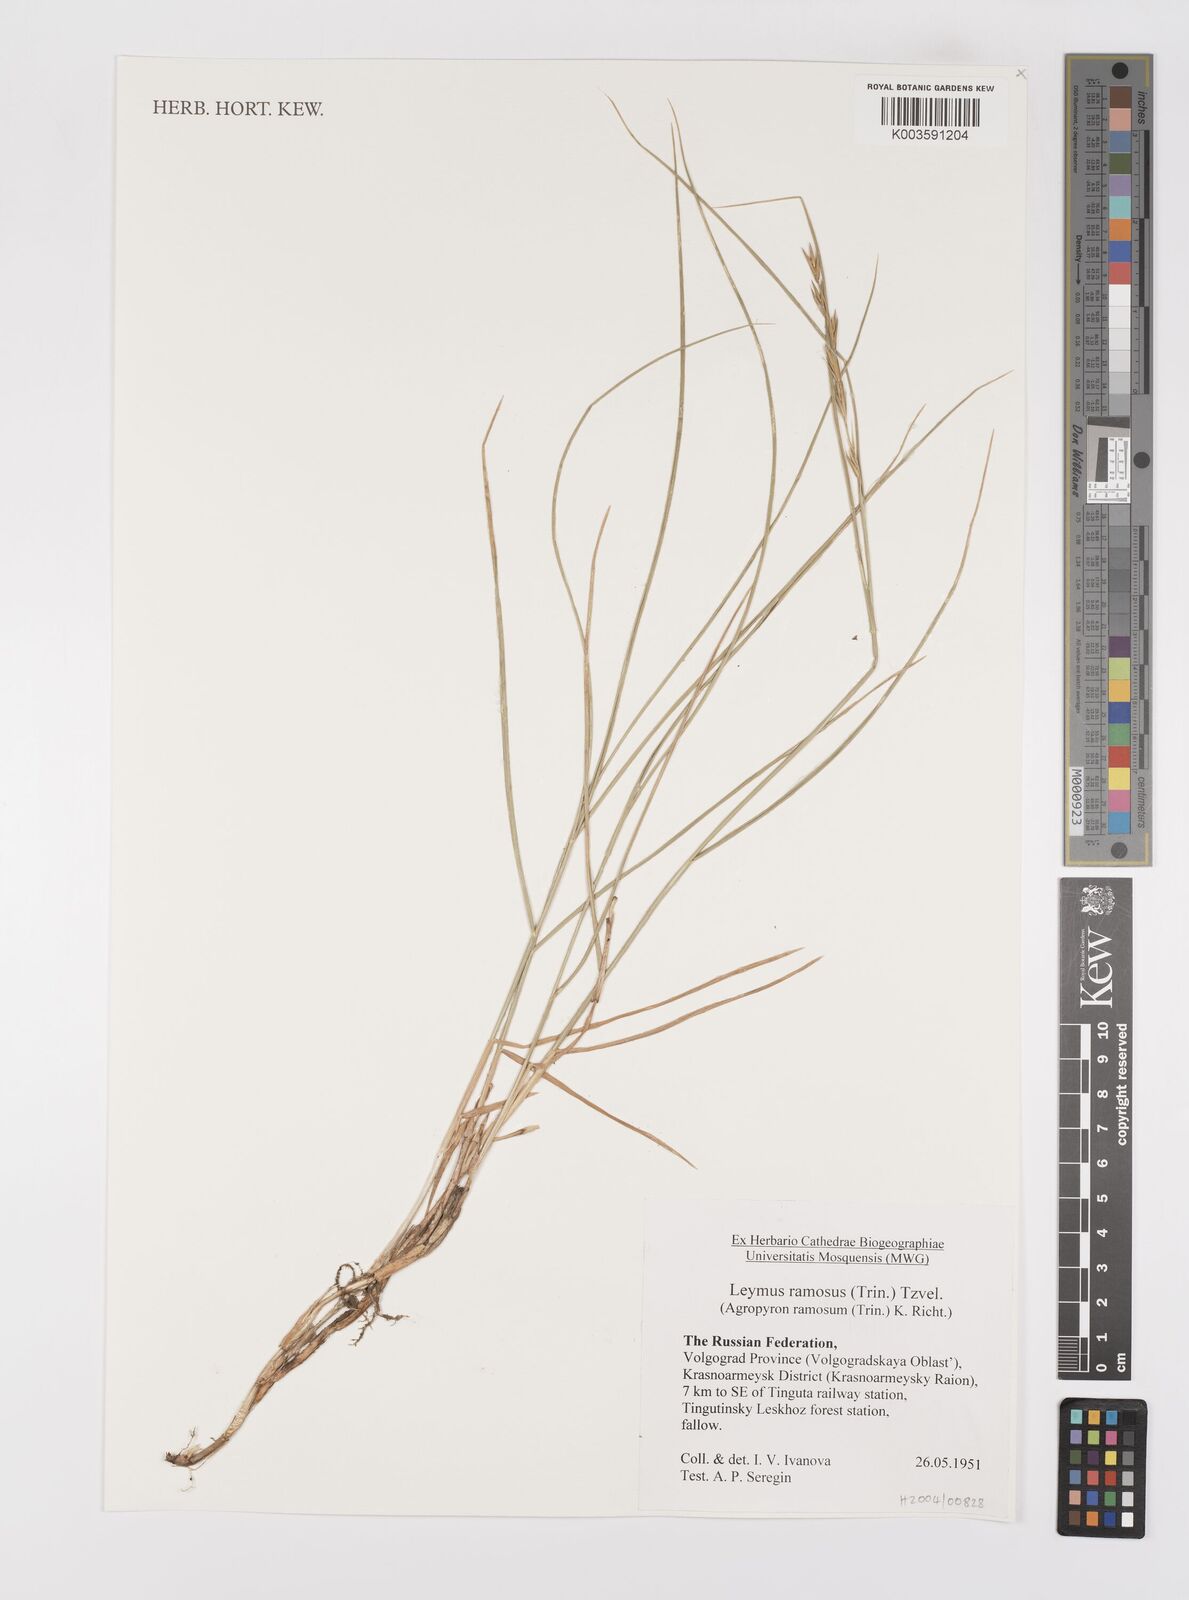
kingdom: Plantae
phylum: Tracheophyta
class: Liliopsida
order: Poales
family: Poaceae
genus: Leymus
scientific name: Leymus ramosus
